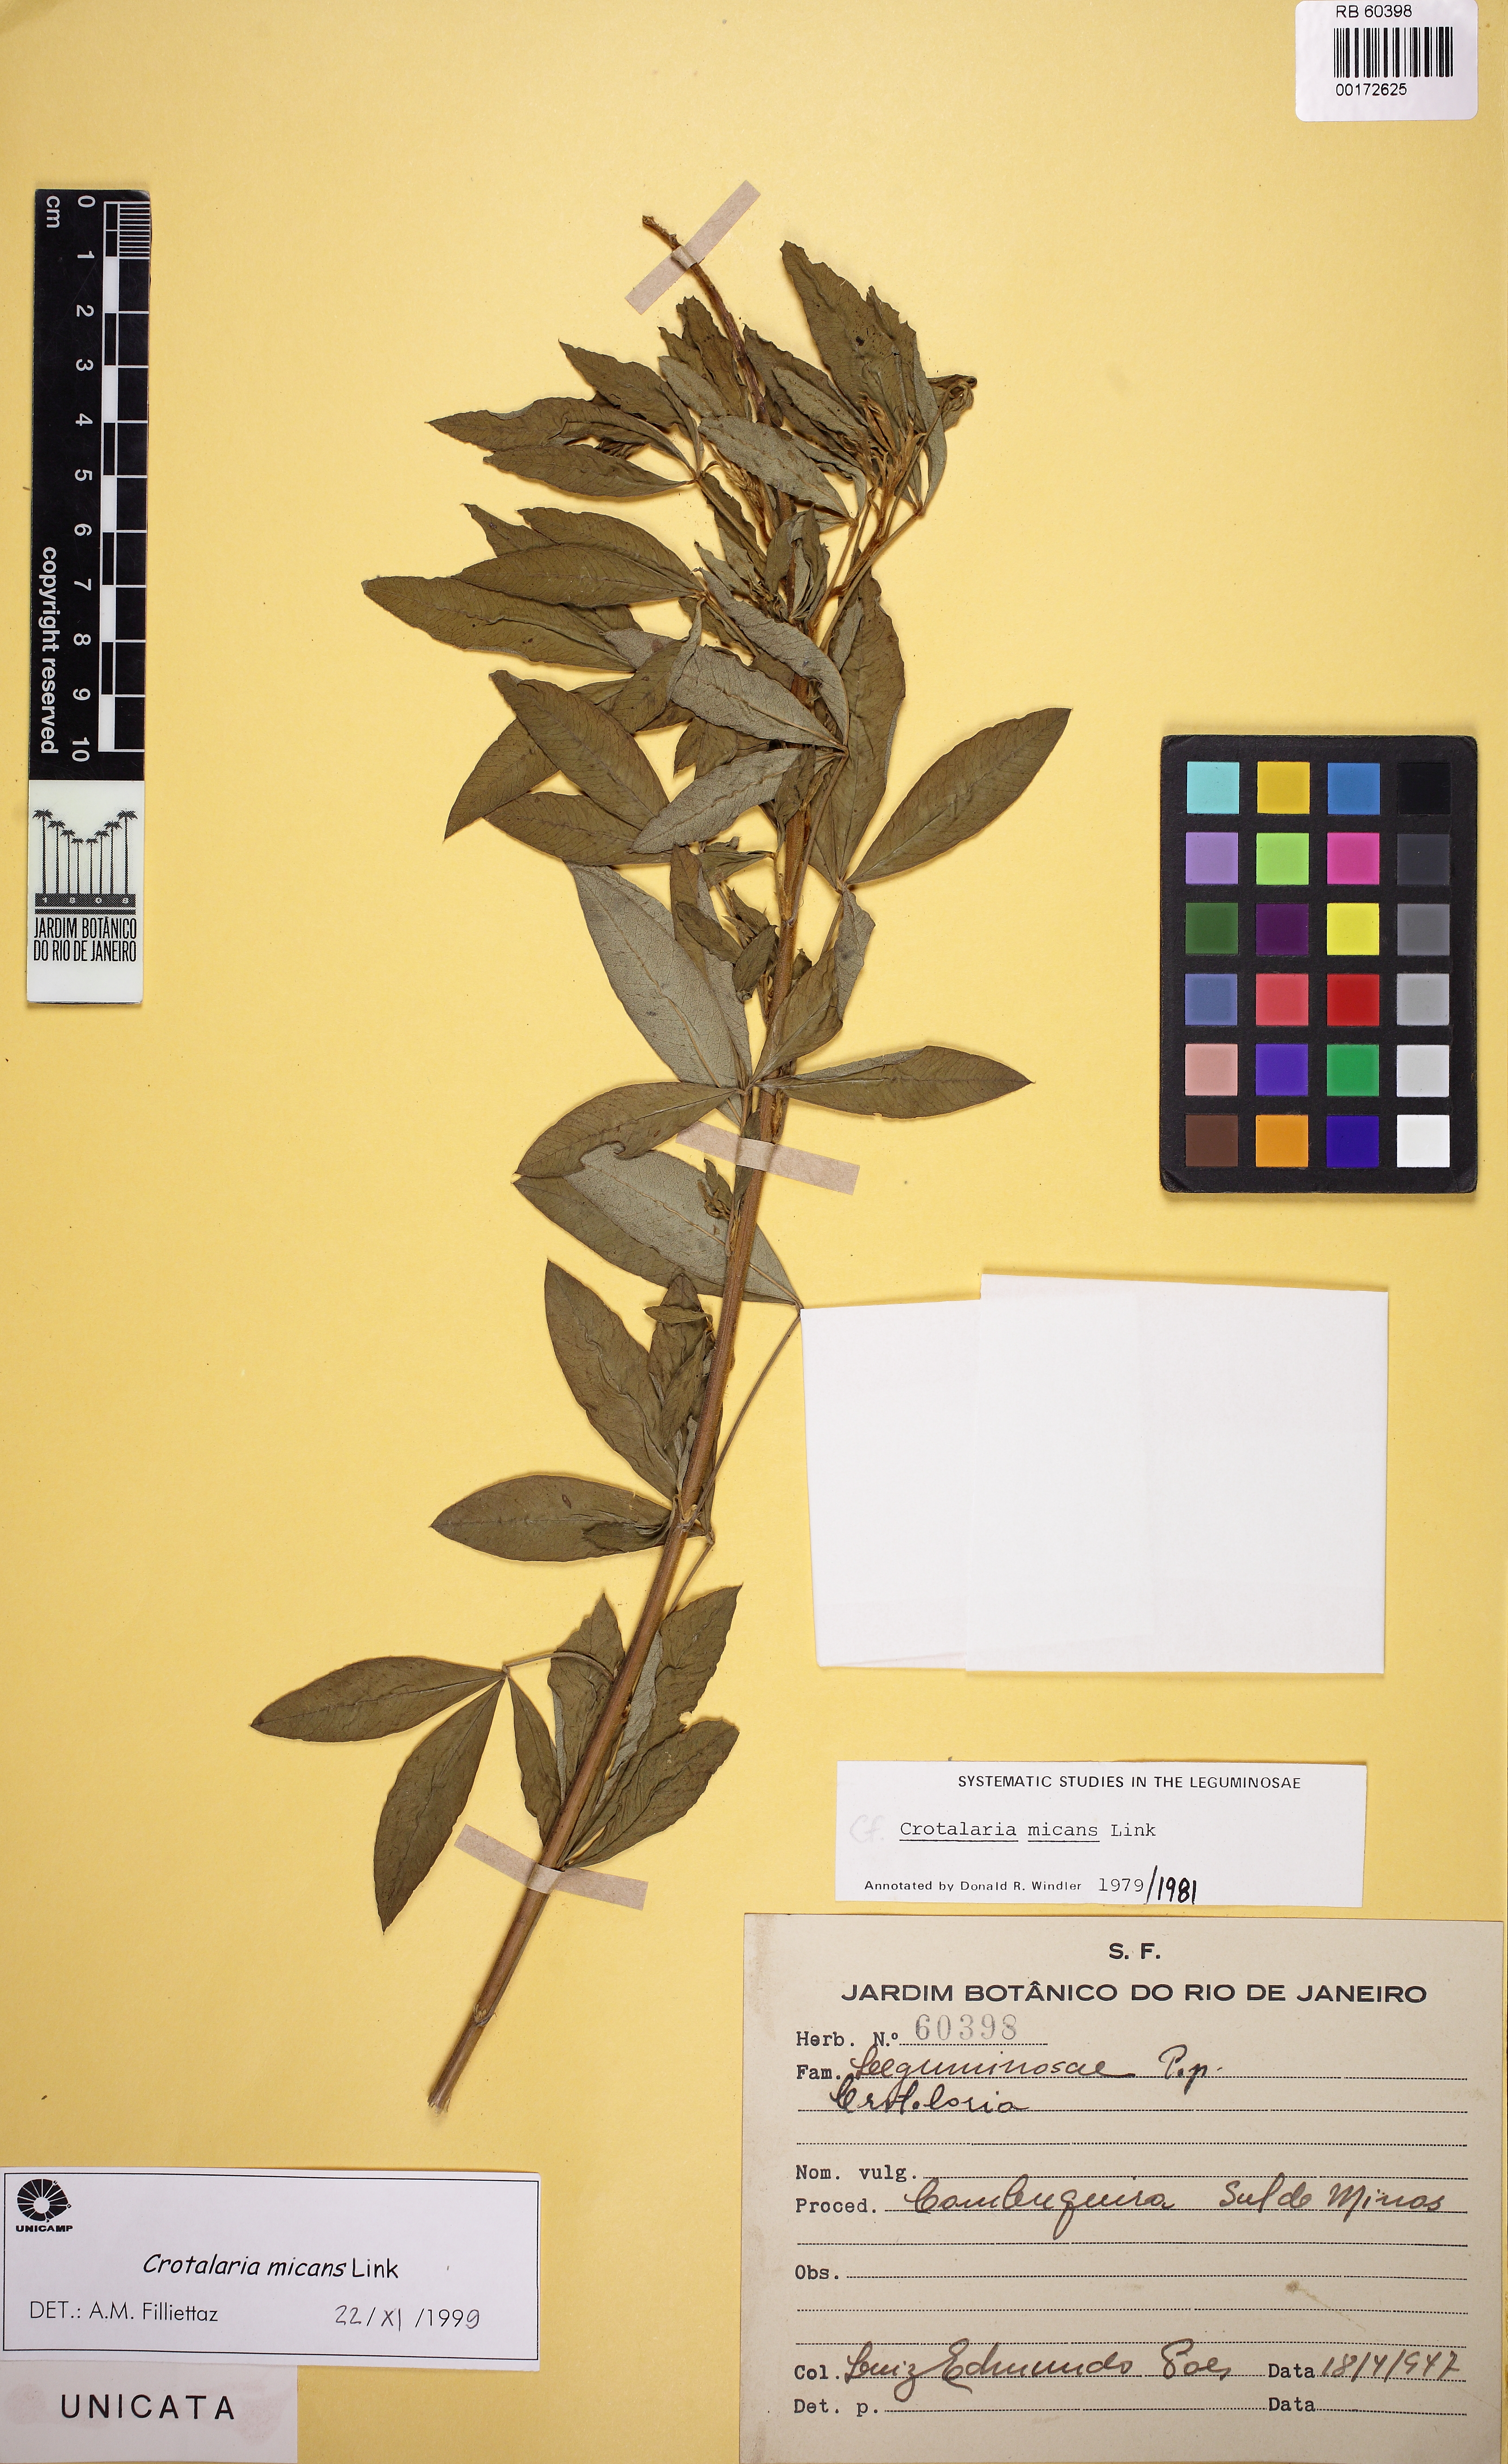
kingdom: Plantae
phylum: Tracheophyta
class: Magnoliopsida
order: Fabales
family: Fabaceae
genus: Crotalaria
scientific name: Crotalaria micans
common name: Caracas rattlebox
